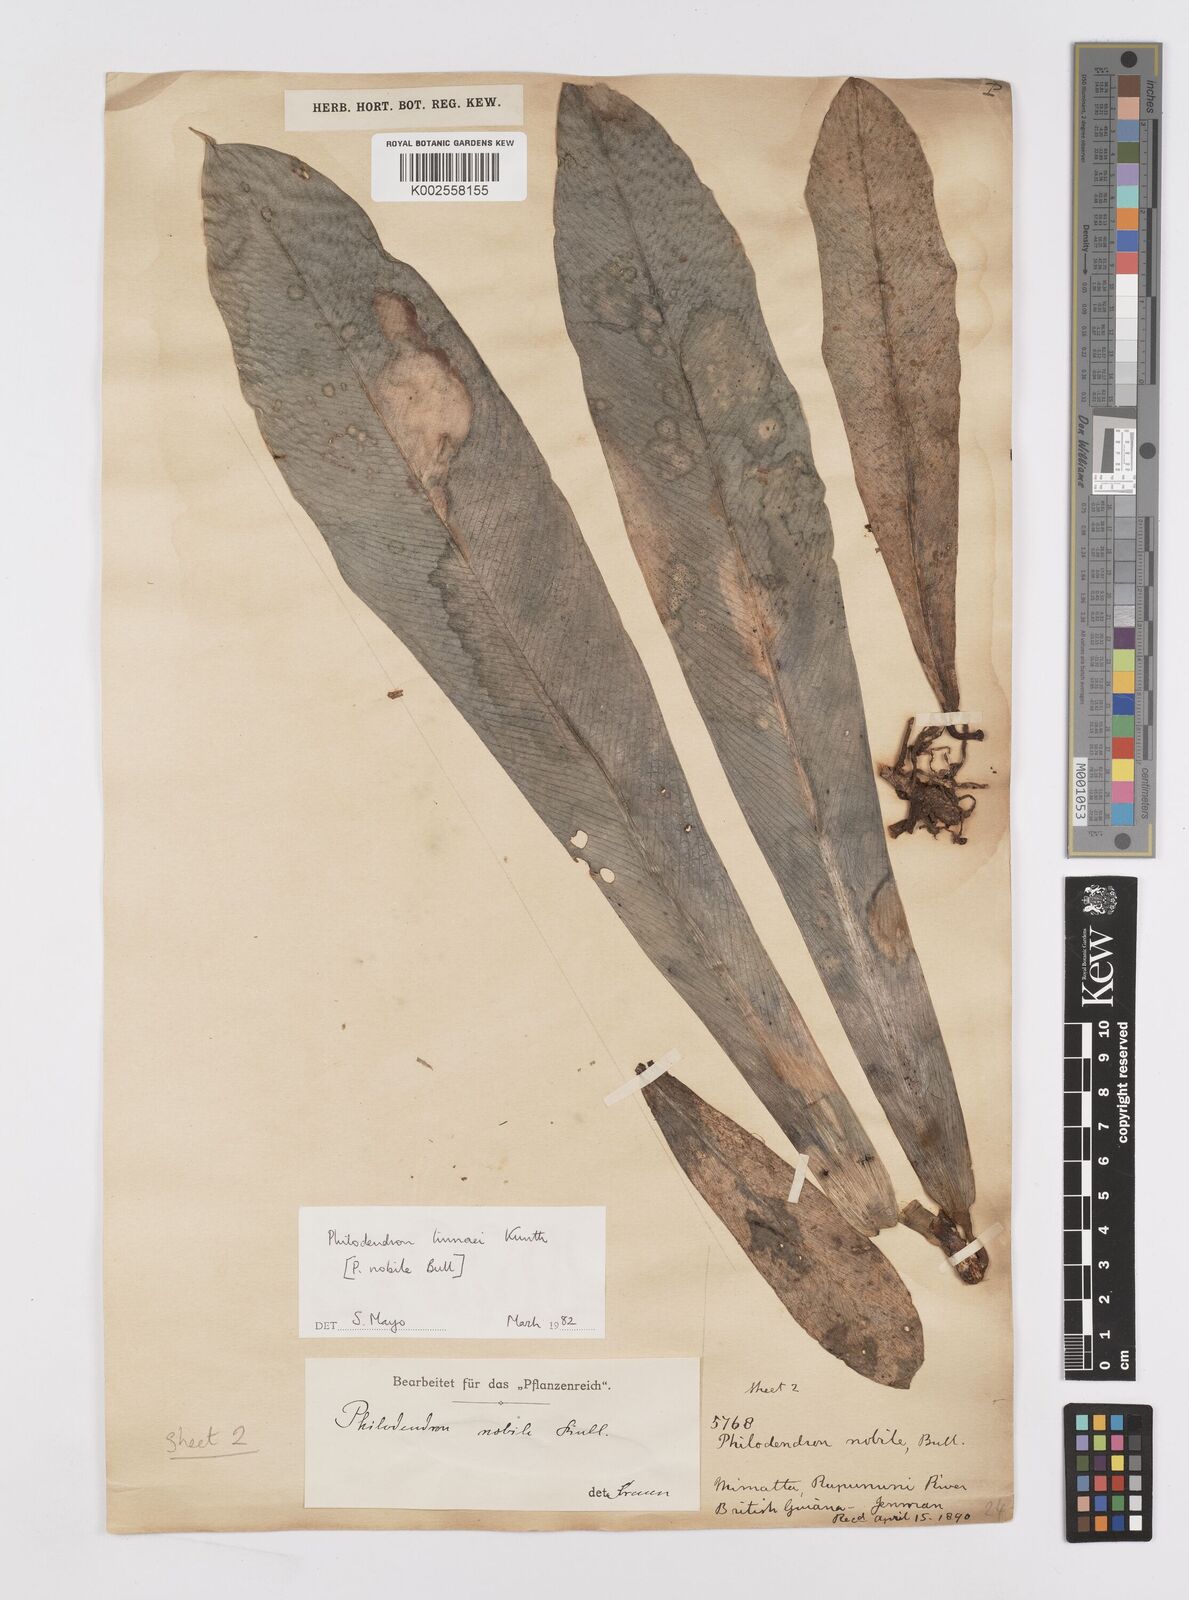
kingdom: Plantae
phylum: Tracheophyta
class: Liliopsida
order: Alismatales
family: Araceae
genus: Philodendron
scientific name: Philodendron linnaei
